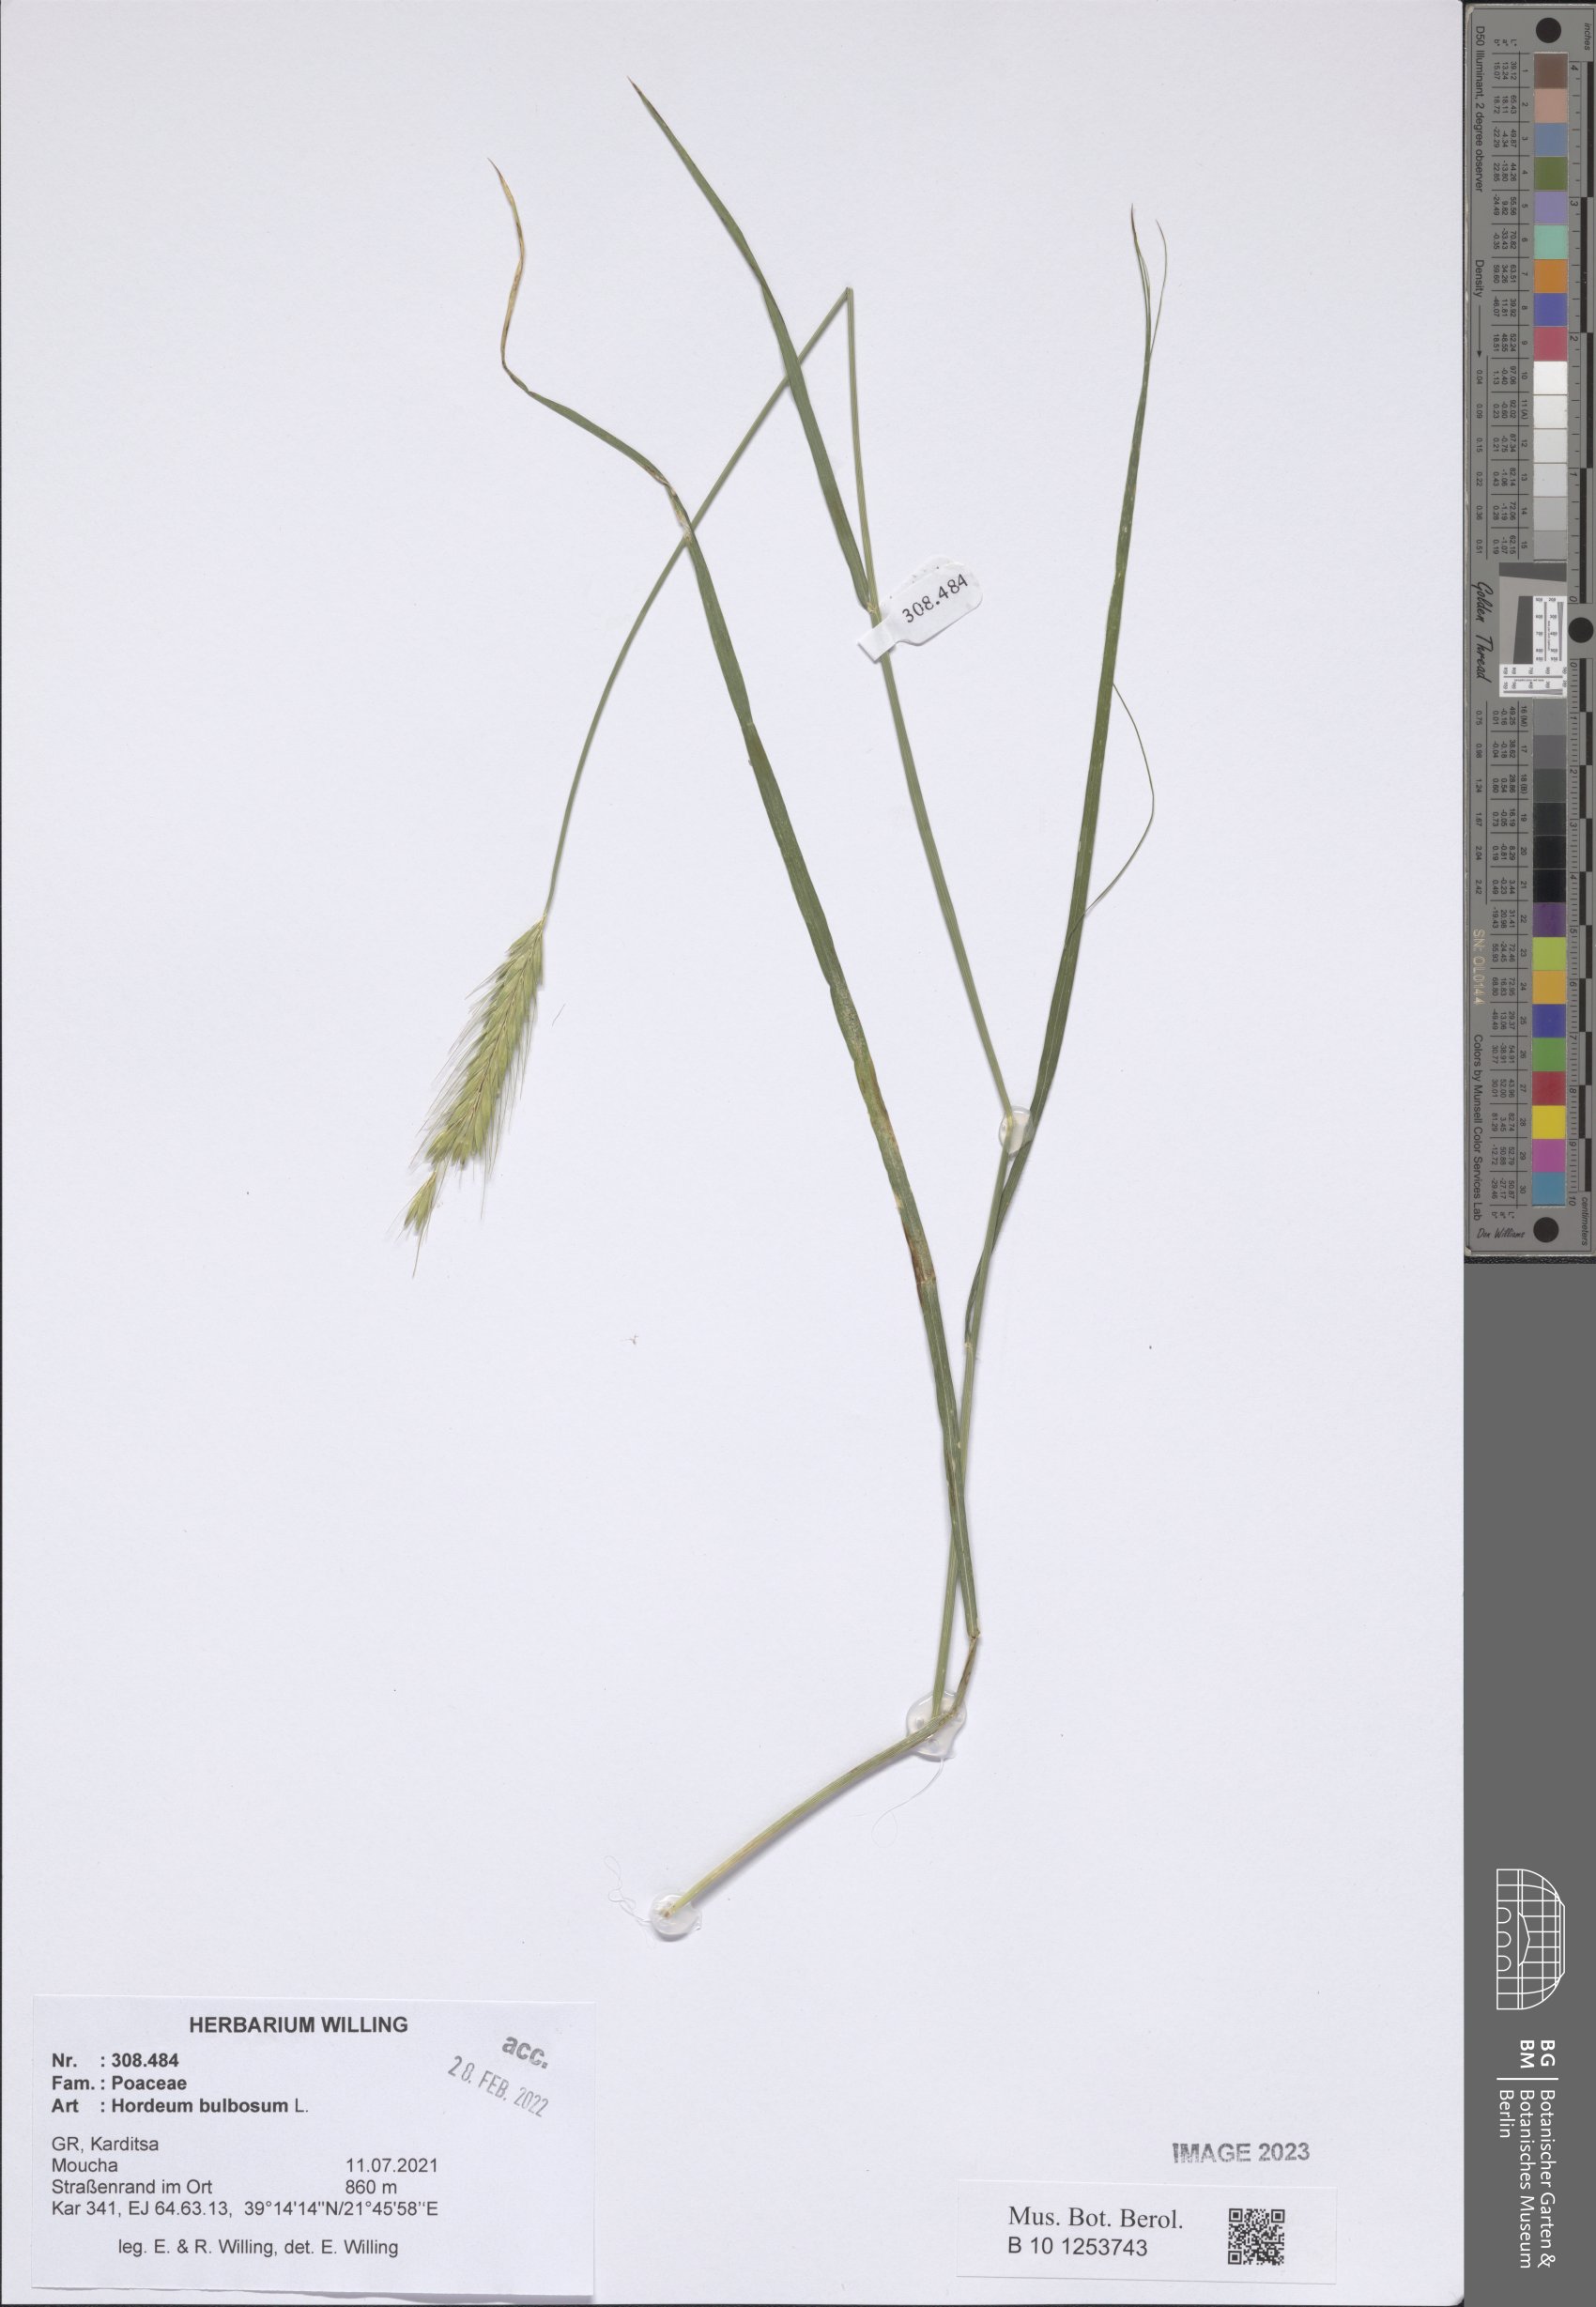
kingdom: Plantae
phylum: Tracheophyta
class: Liliopsida
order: Poales
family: Poaceae
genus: Hordeum
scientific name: Hordeum bulbosum
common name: Bulbous barley
